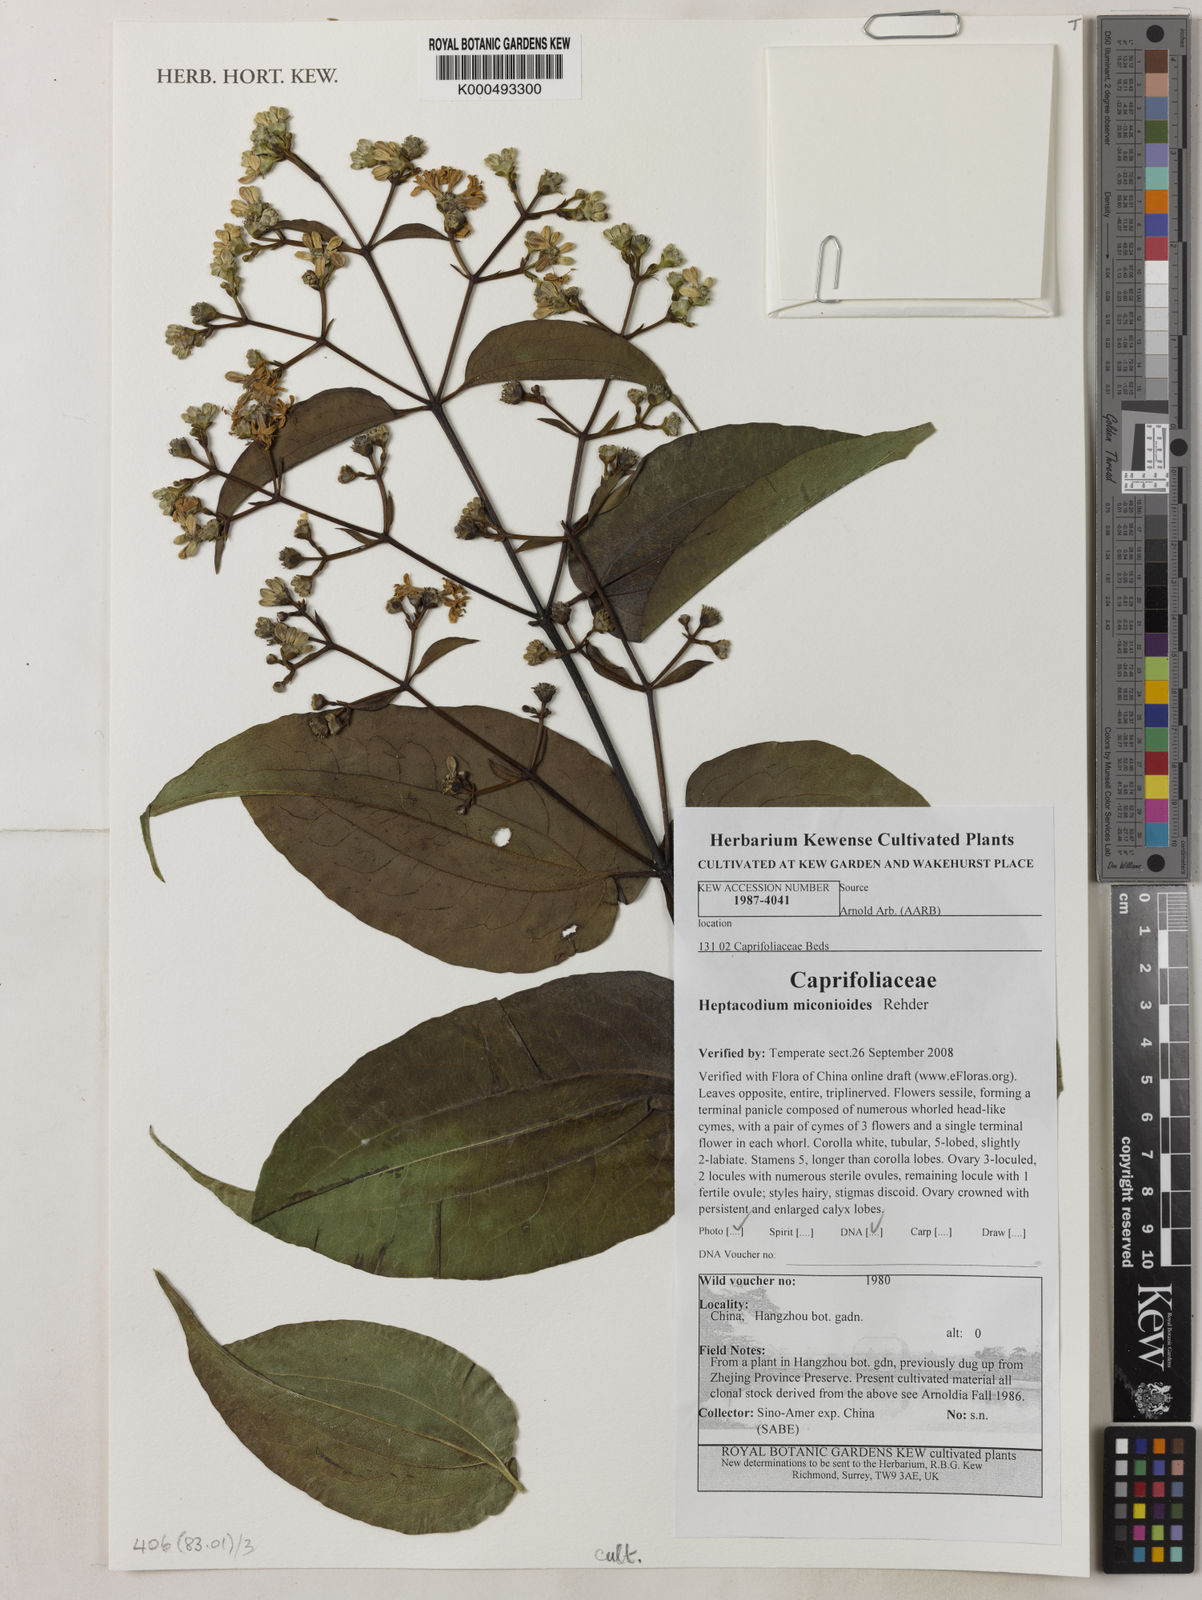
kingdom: Plantae
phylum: Tracheophyta
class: Magnoliopsida
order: Dipsacales
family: Caprifoliaceae
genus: Heptacodium
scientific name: Heptacodium miconioides
